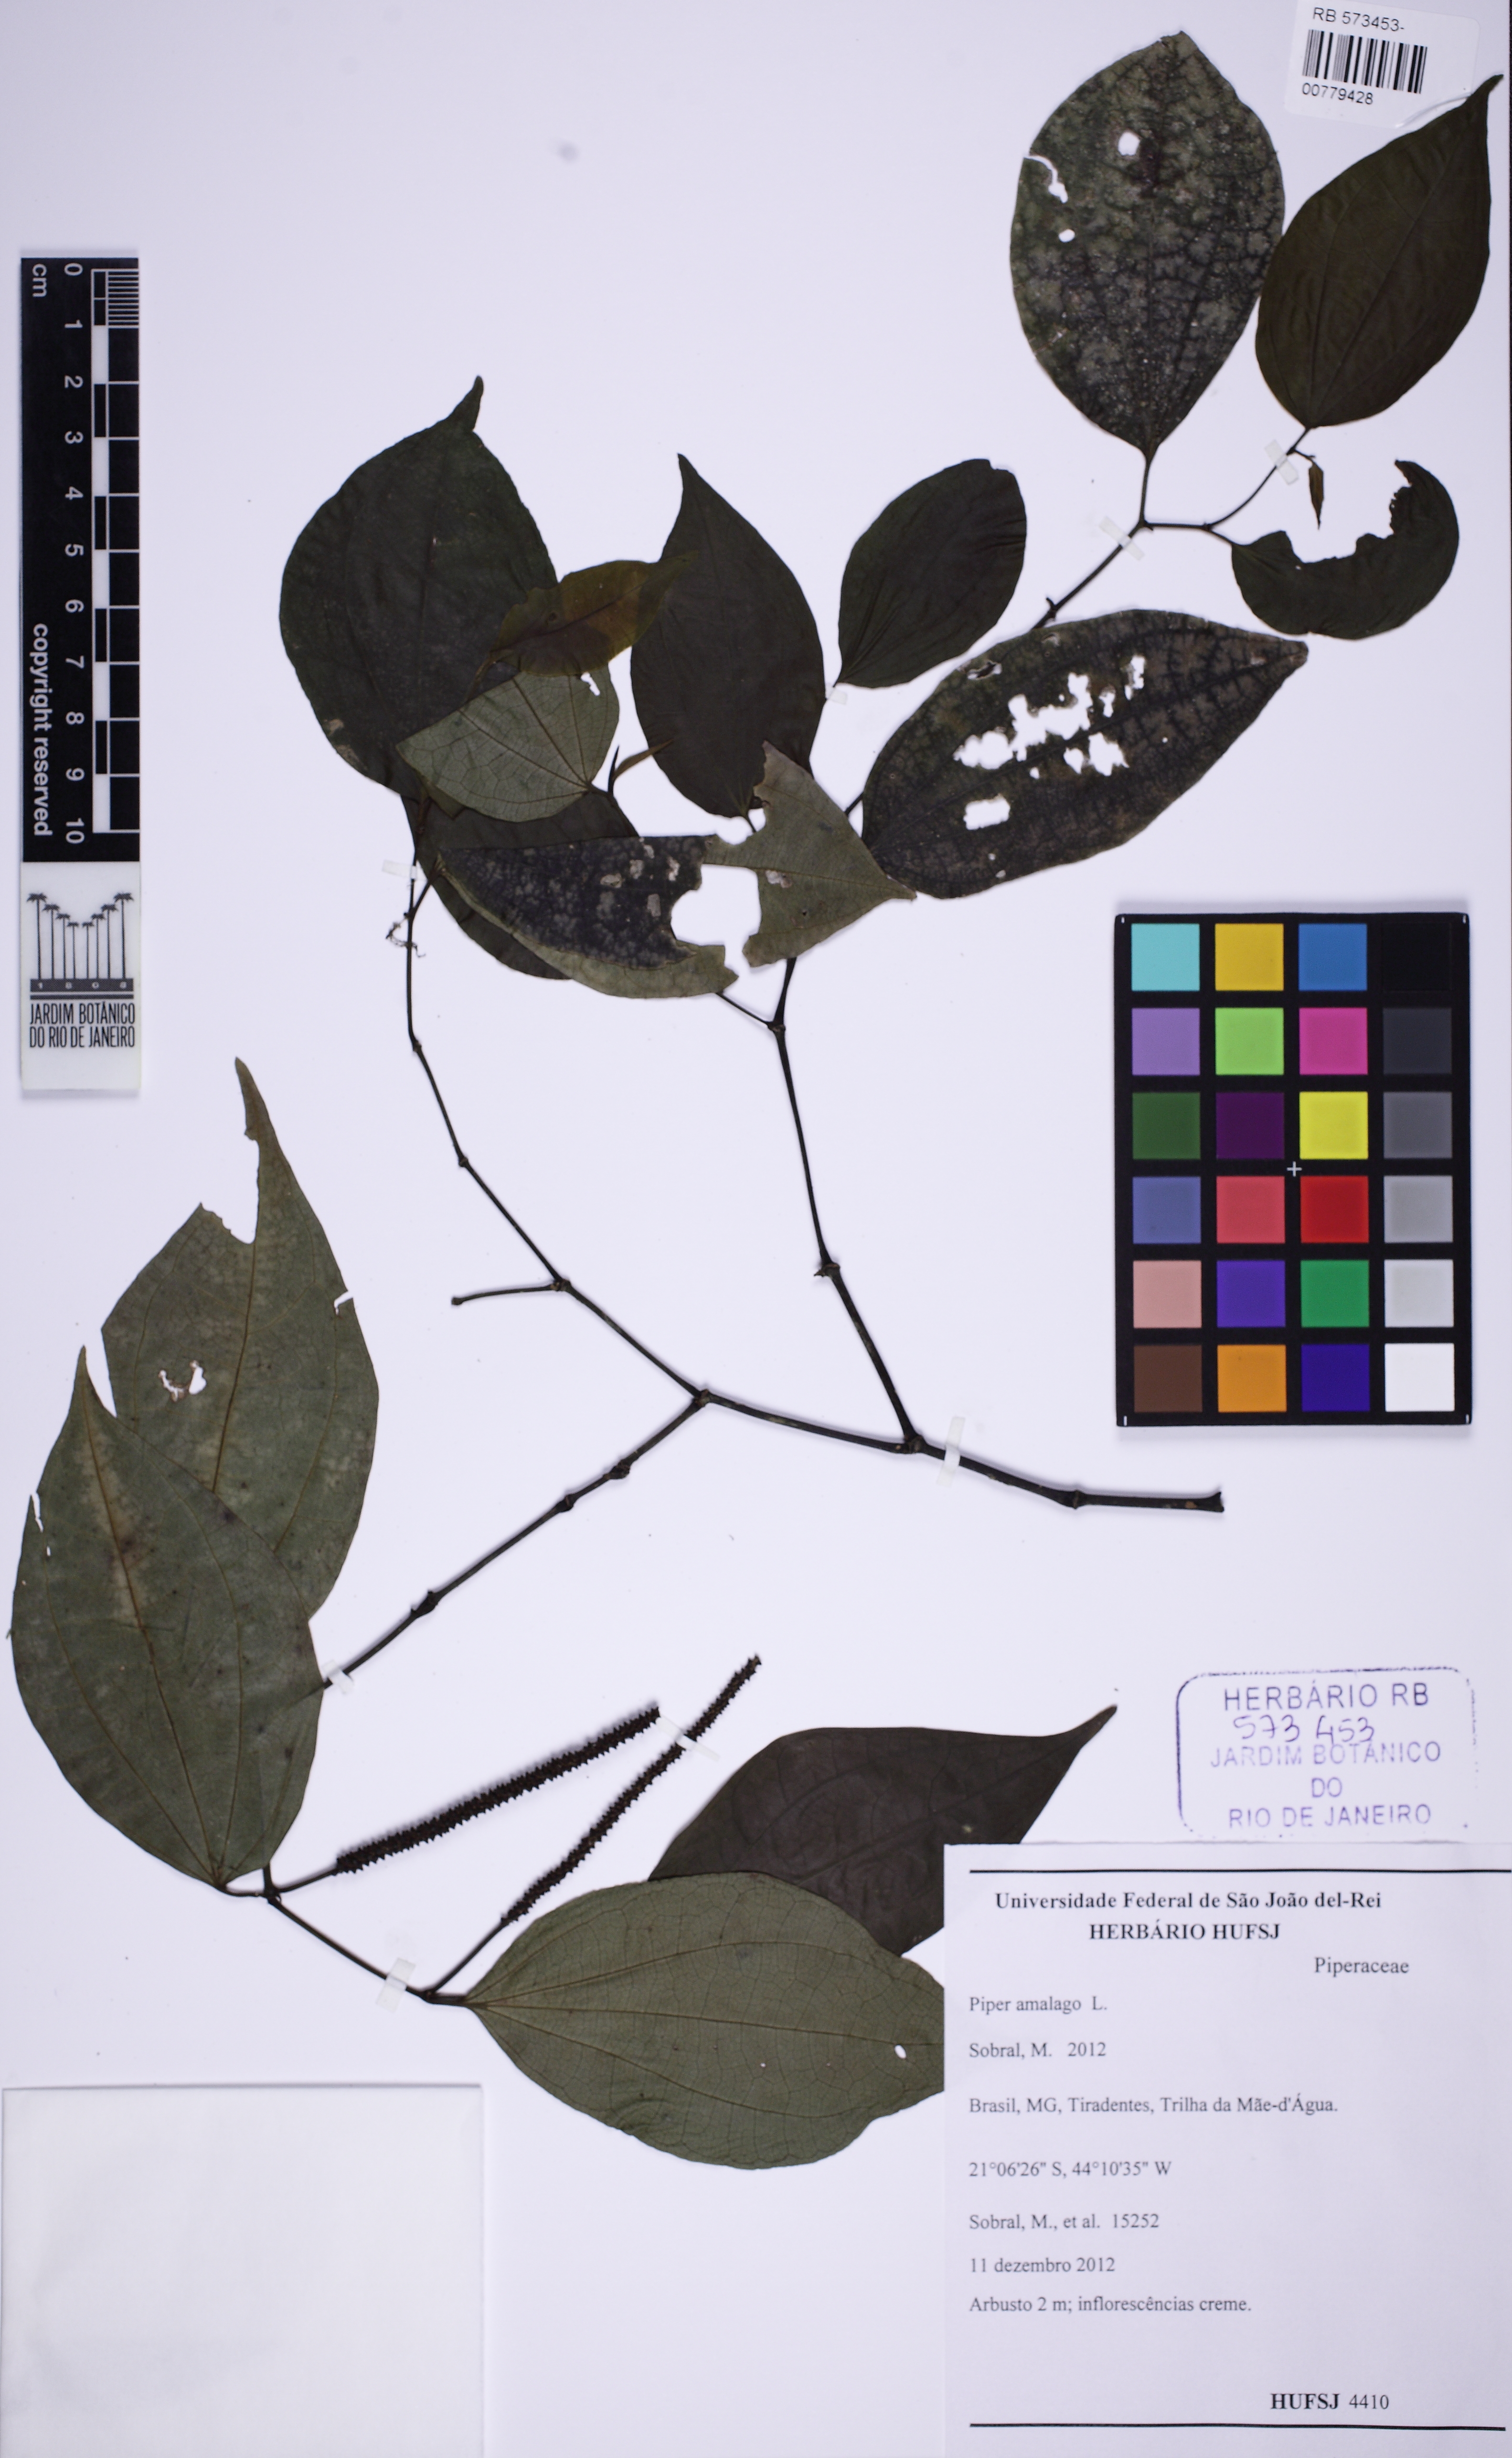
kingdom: Plantae
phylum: Tracheophyta
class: Magnoliopsida
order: Piperales
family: Piperaceae
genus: Piper
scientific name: Piper amalago
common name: Pepper-elder
